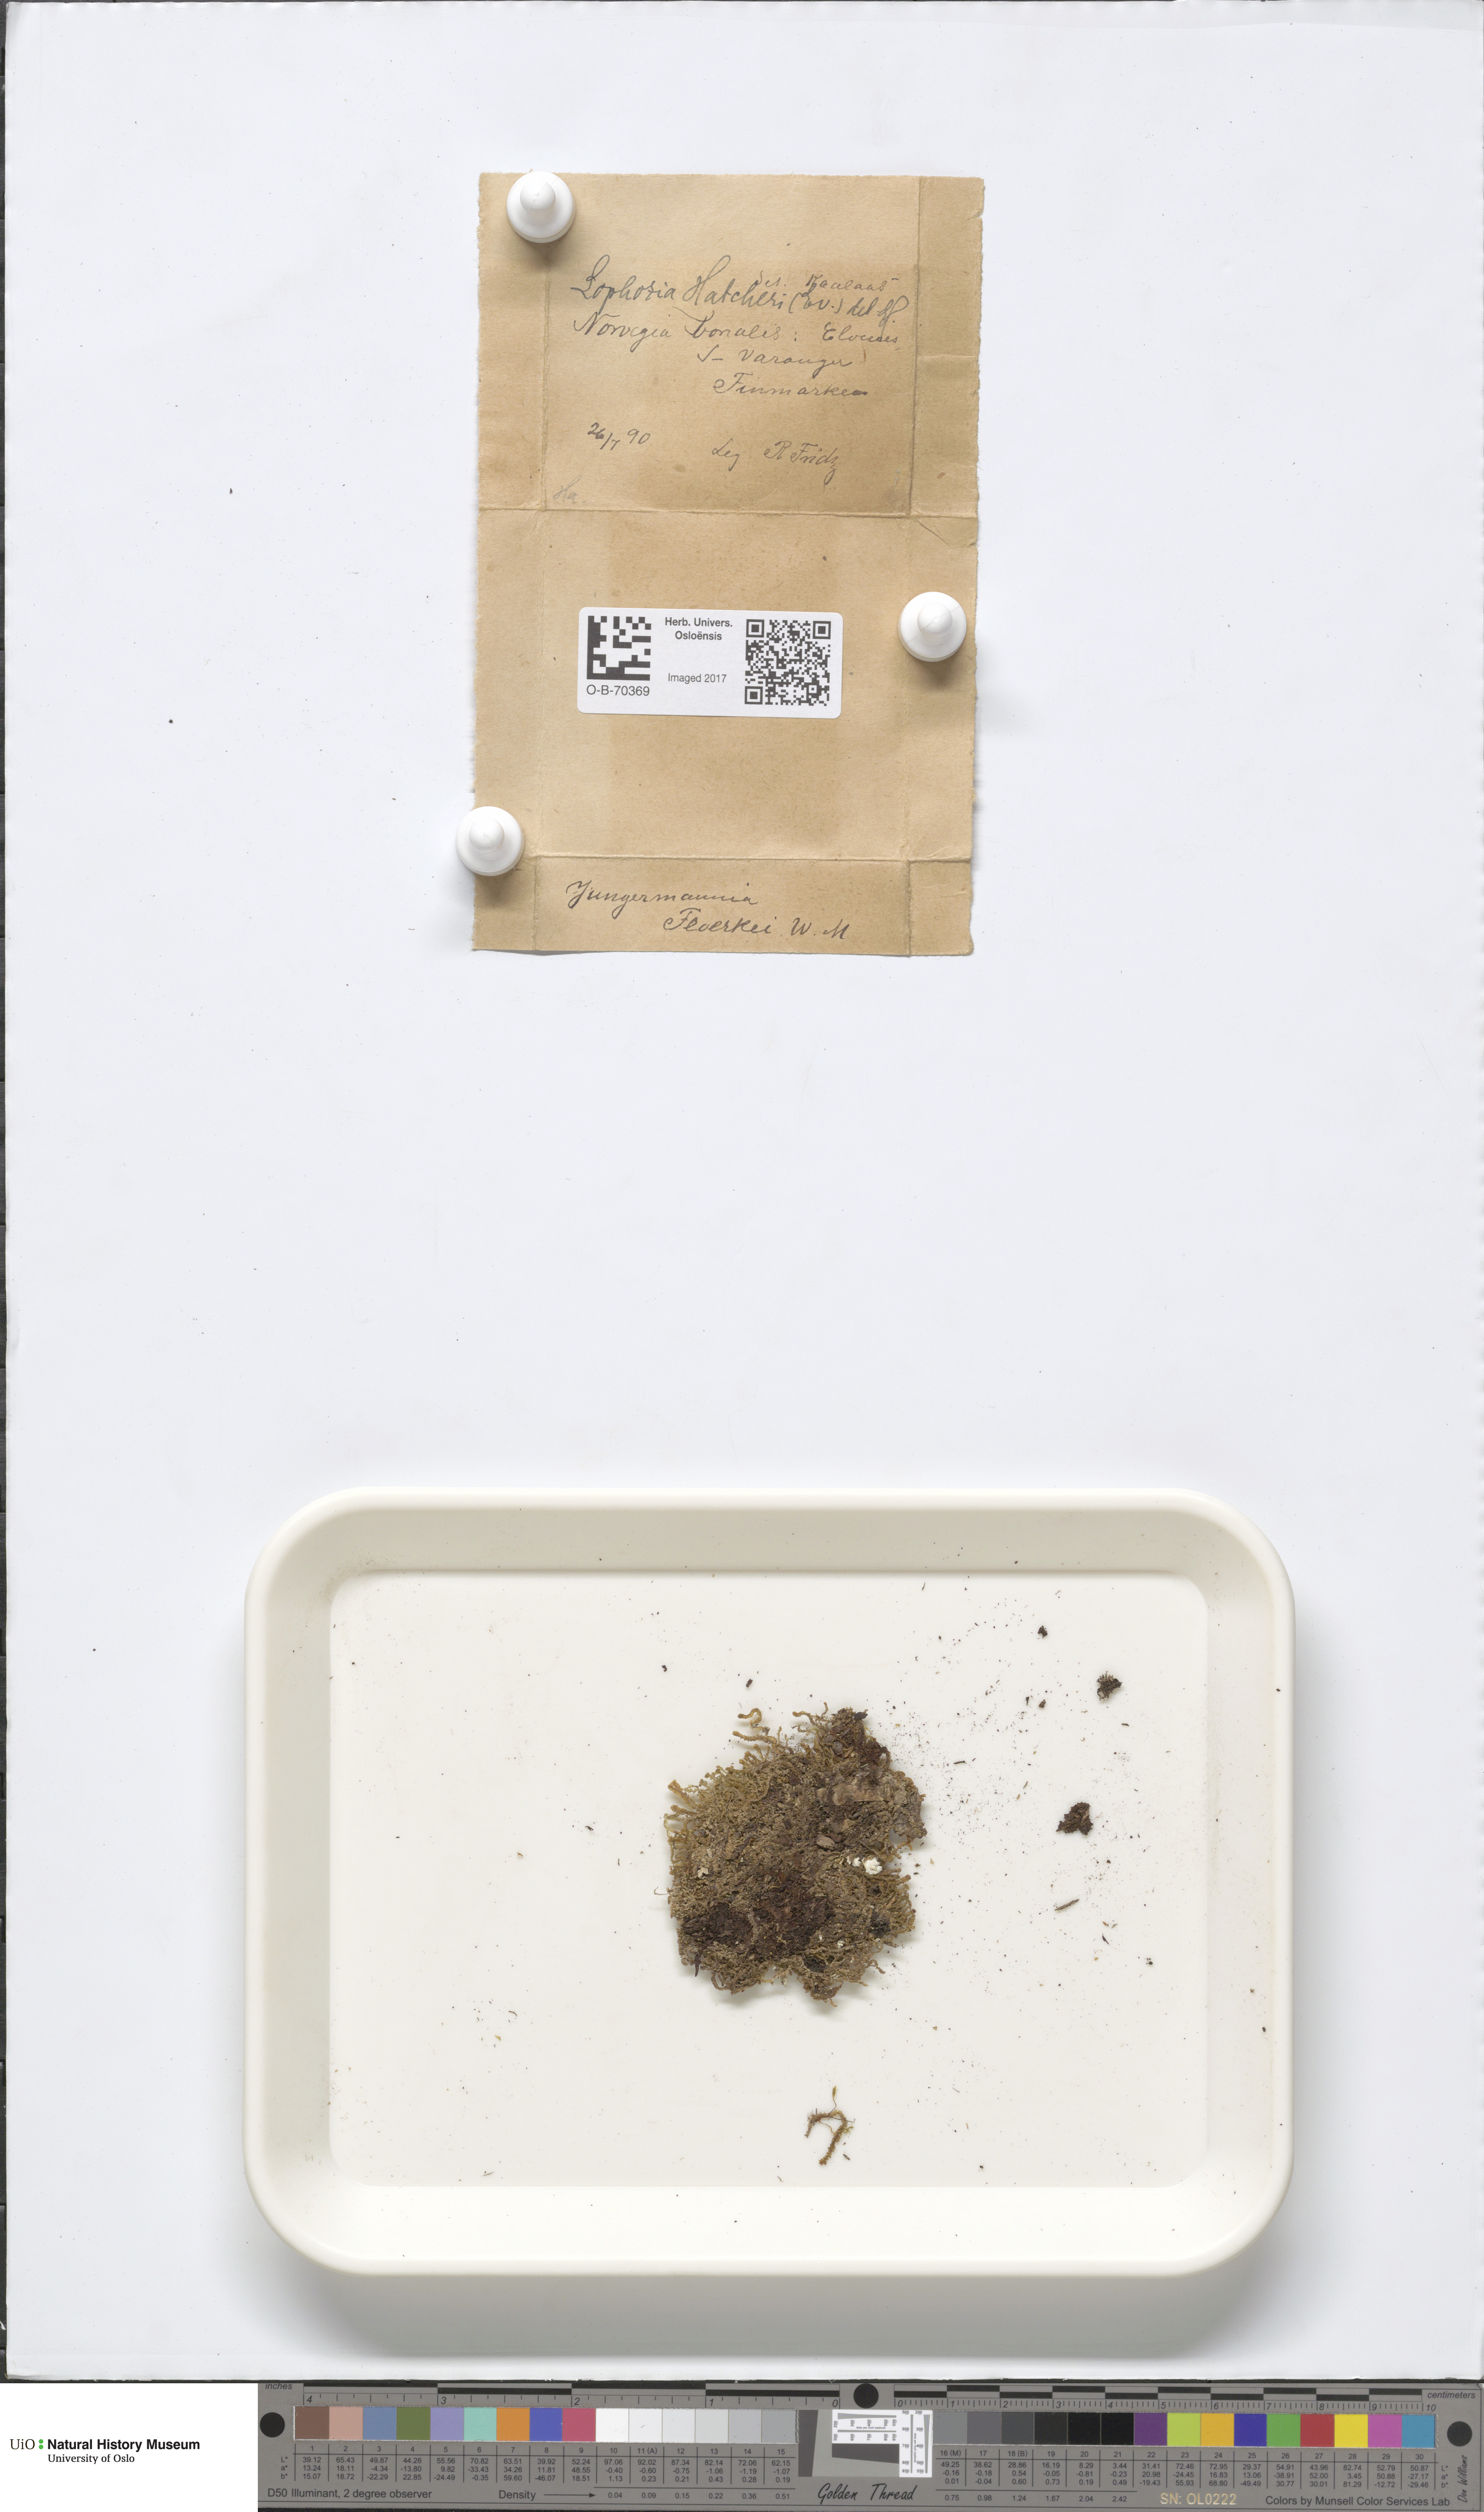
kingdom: Plantae
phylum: Marchantiophyta
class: Jungermanniopsida
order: Jungermanniales
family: Anastrophyllaceae
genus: Schljakovia
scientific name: Schljakovia kunzeana
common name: Kunze's pawwort
